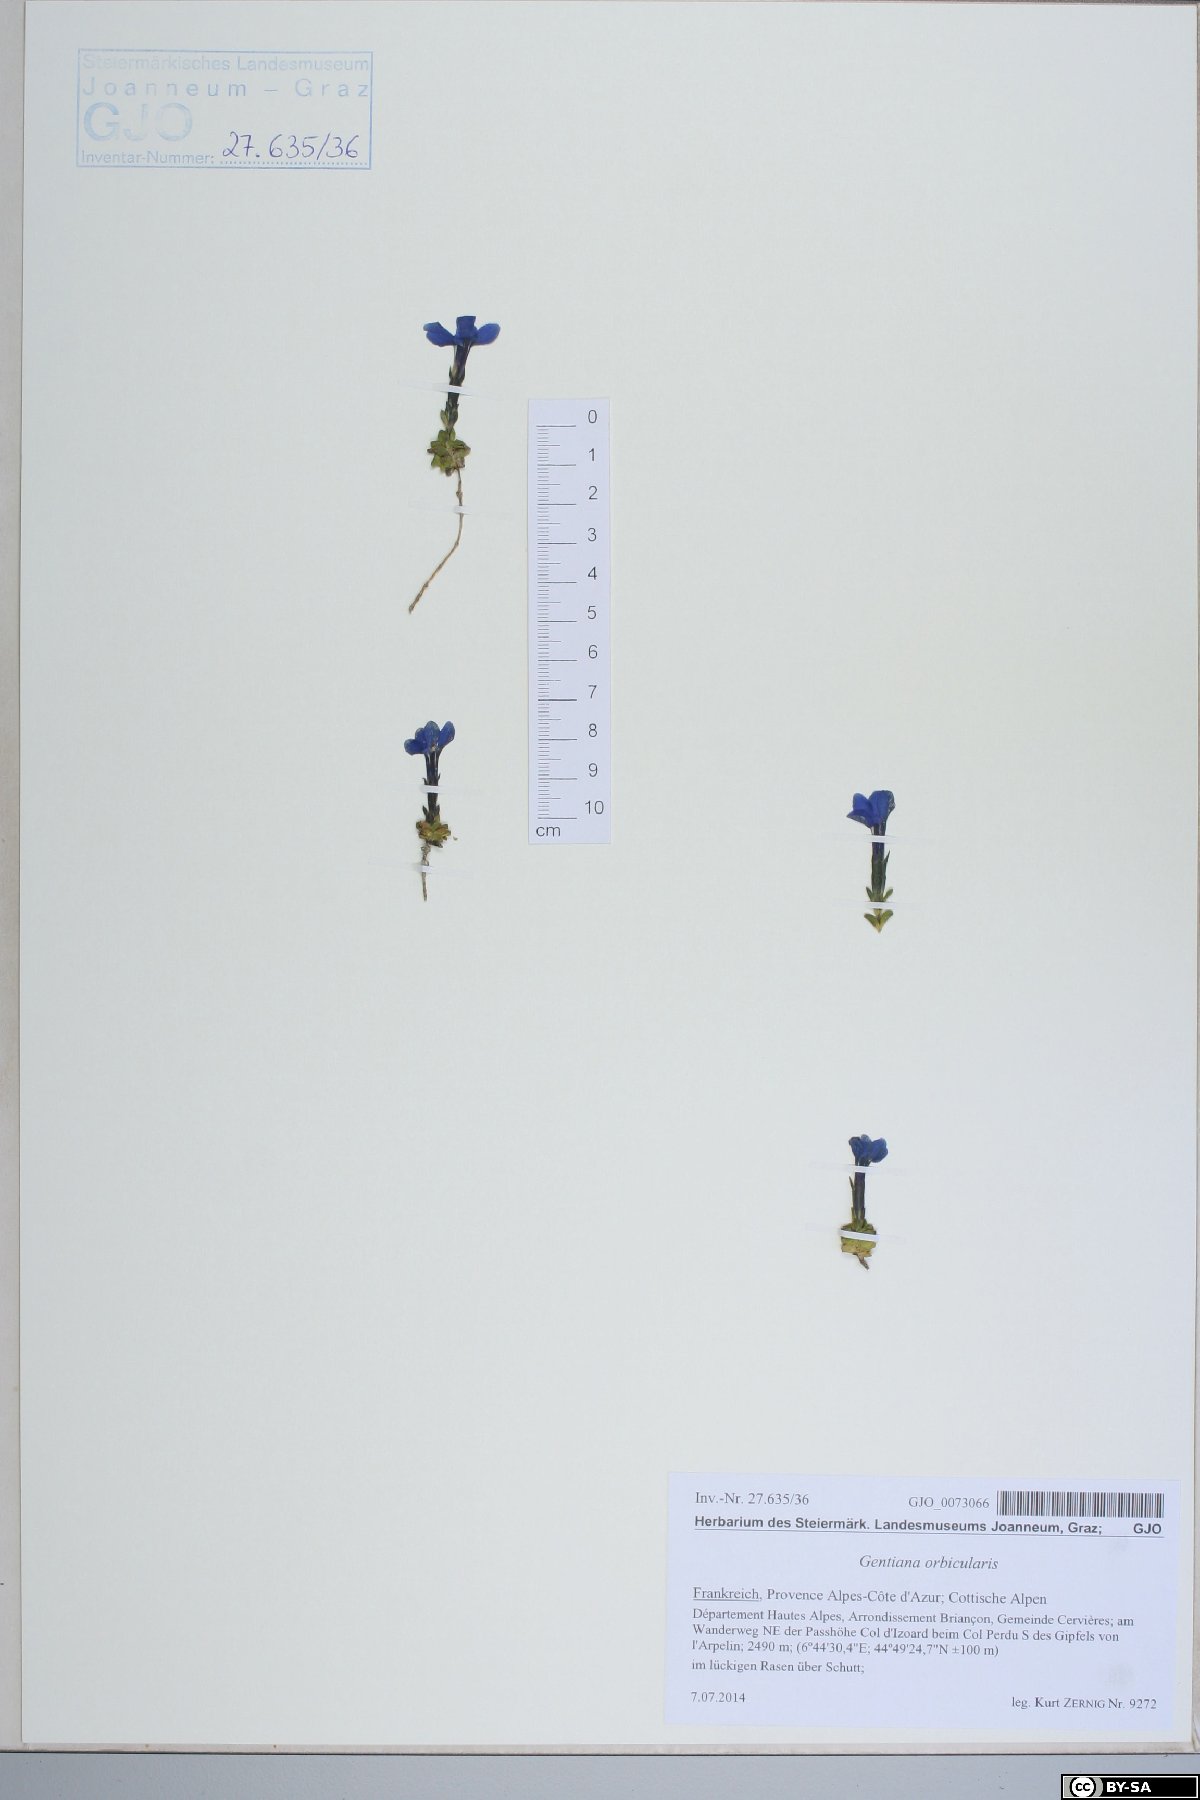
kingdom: Plantae
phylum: Tracheophyta
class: Magnoliopsida
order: Gentianales
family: Gentianaceae
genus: Gentiana
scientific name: Gentiana orbicularis
